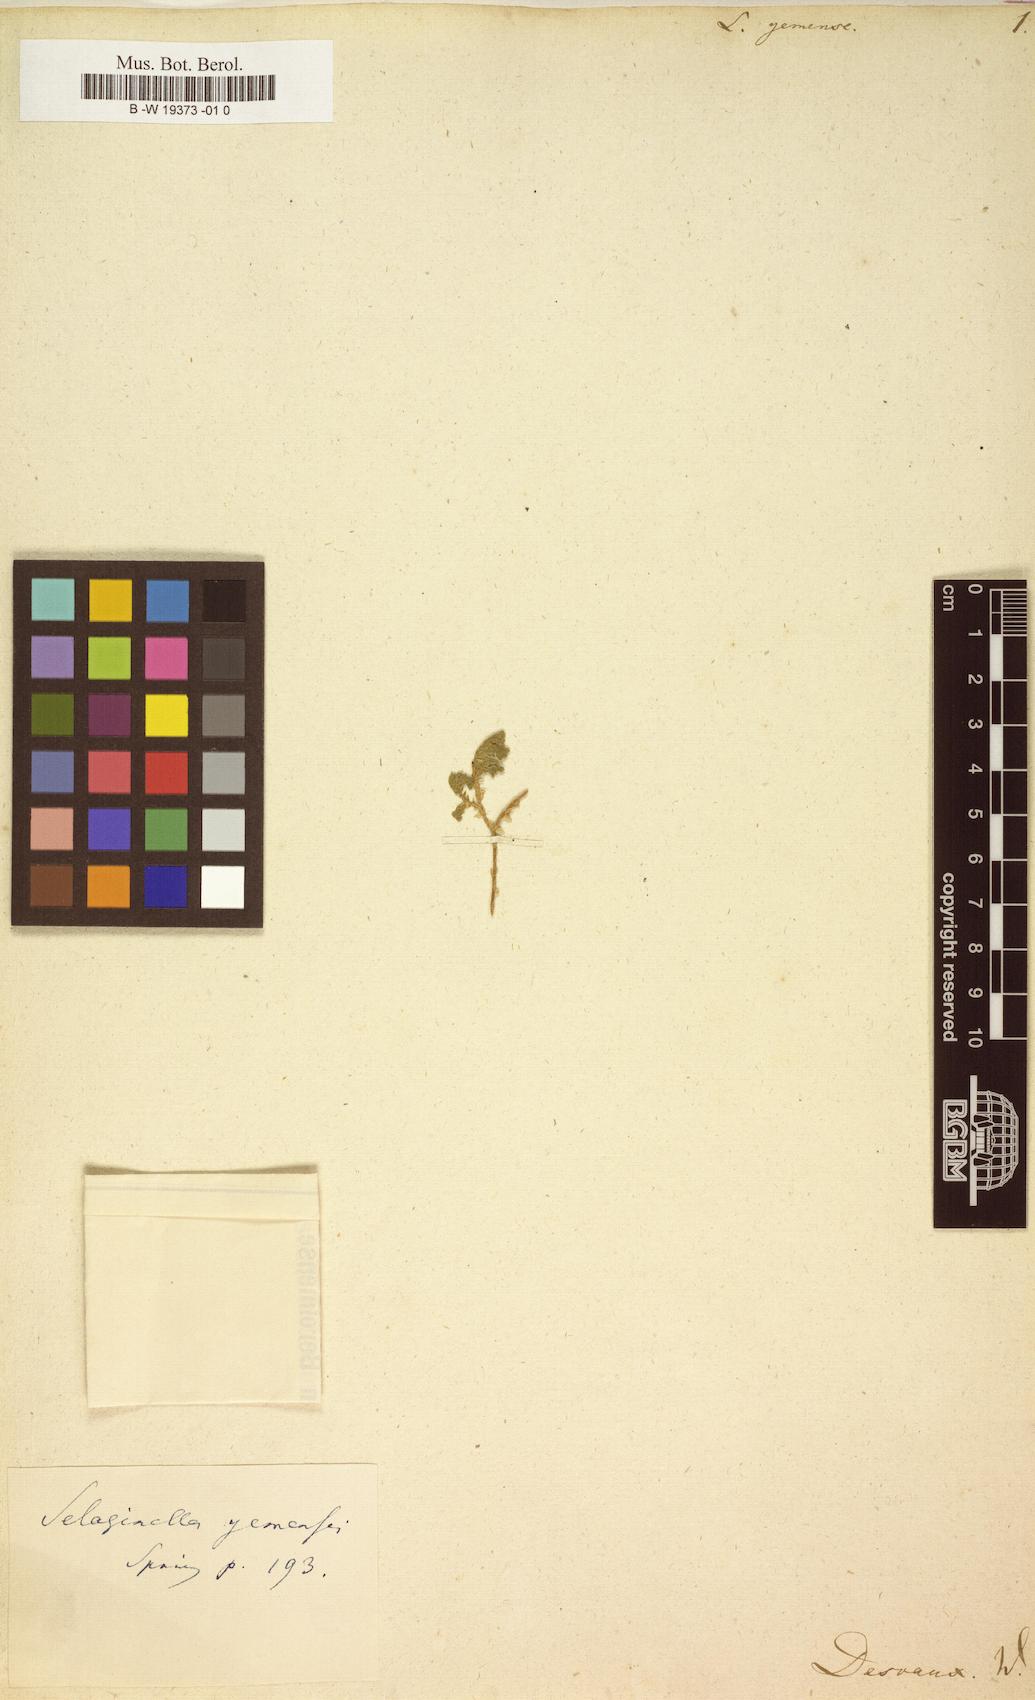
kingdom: Plantae
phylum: Tracheophyta
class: Lycopodiopsida
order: Selaginellales
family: Selaginellaceae
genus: Selaginella
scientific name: Selaginella yemensis
